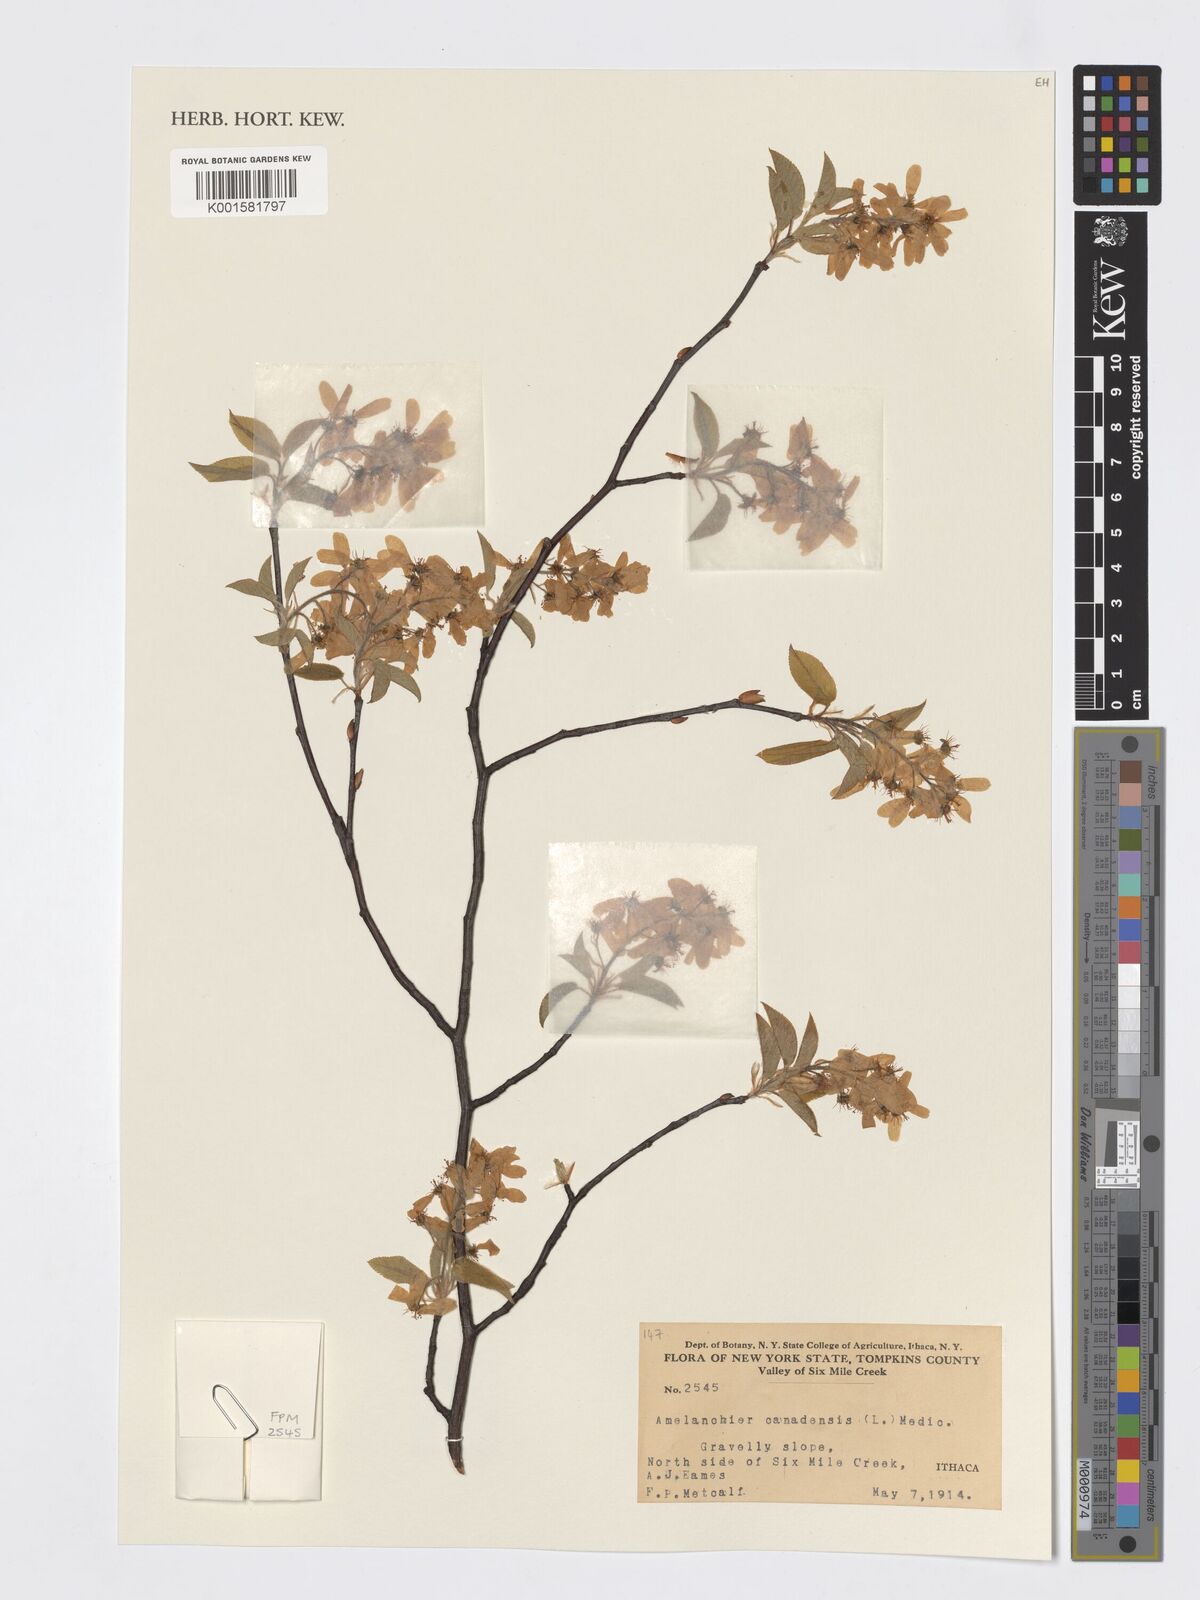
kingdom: Plantae
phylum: Tracheophyta
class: Magnoliopsida
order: Rosales
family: Rosaceae
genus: Amelanchier
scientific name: Amelanchier canadensis
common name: Thicket serviceberry
